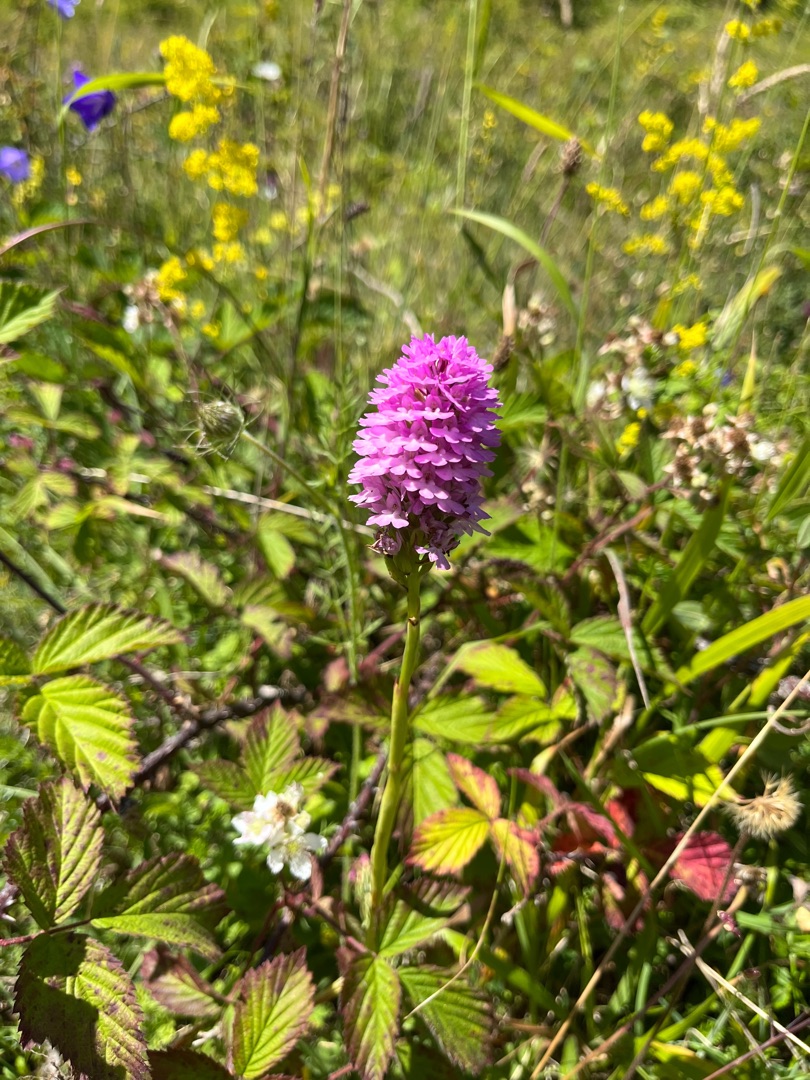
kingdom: Plantae
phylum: Tracheophyta
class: Liliopsida
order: Asparagales
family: Orchidaceae
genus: Anacamptis
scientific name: Anacamptis pyramidalis
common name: Horndrager
